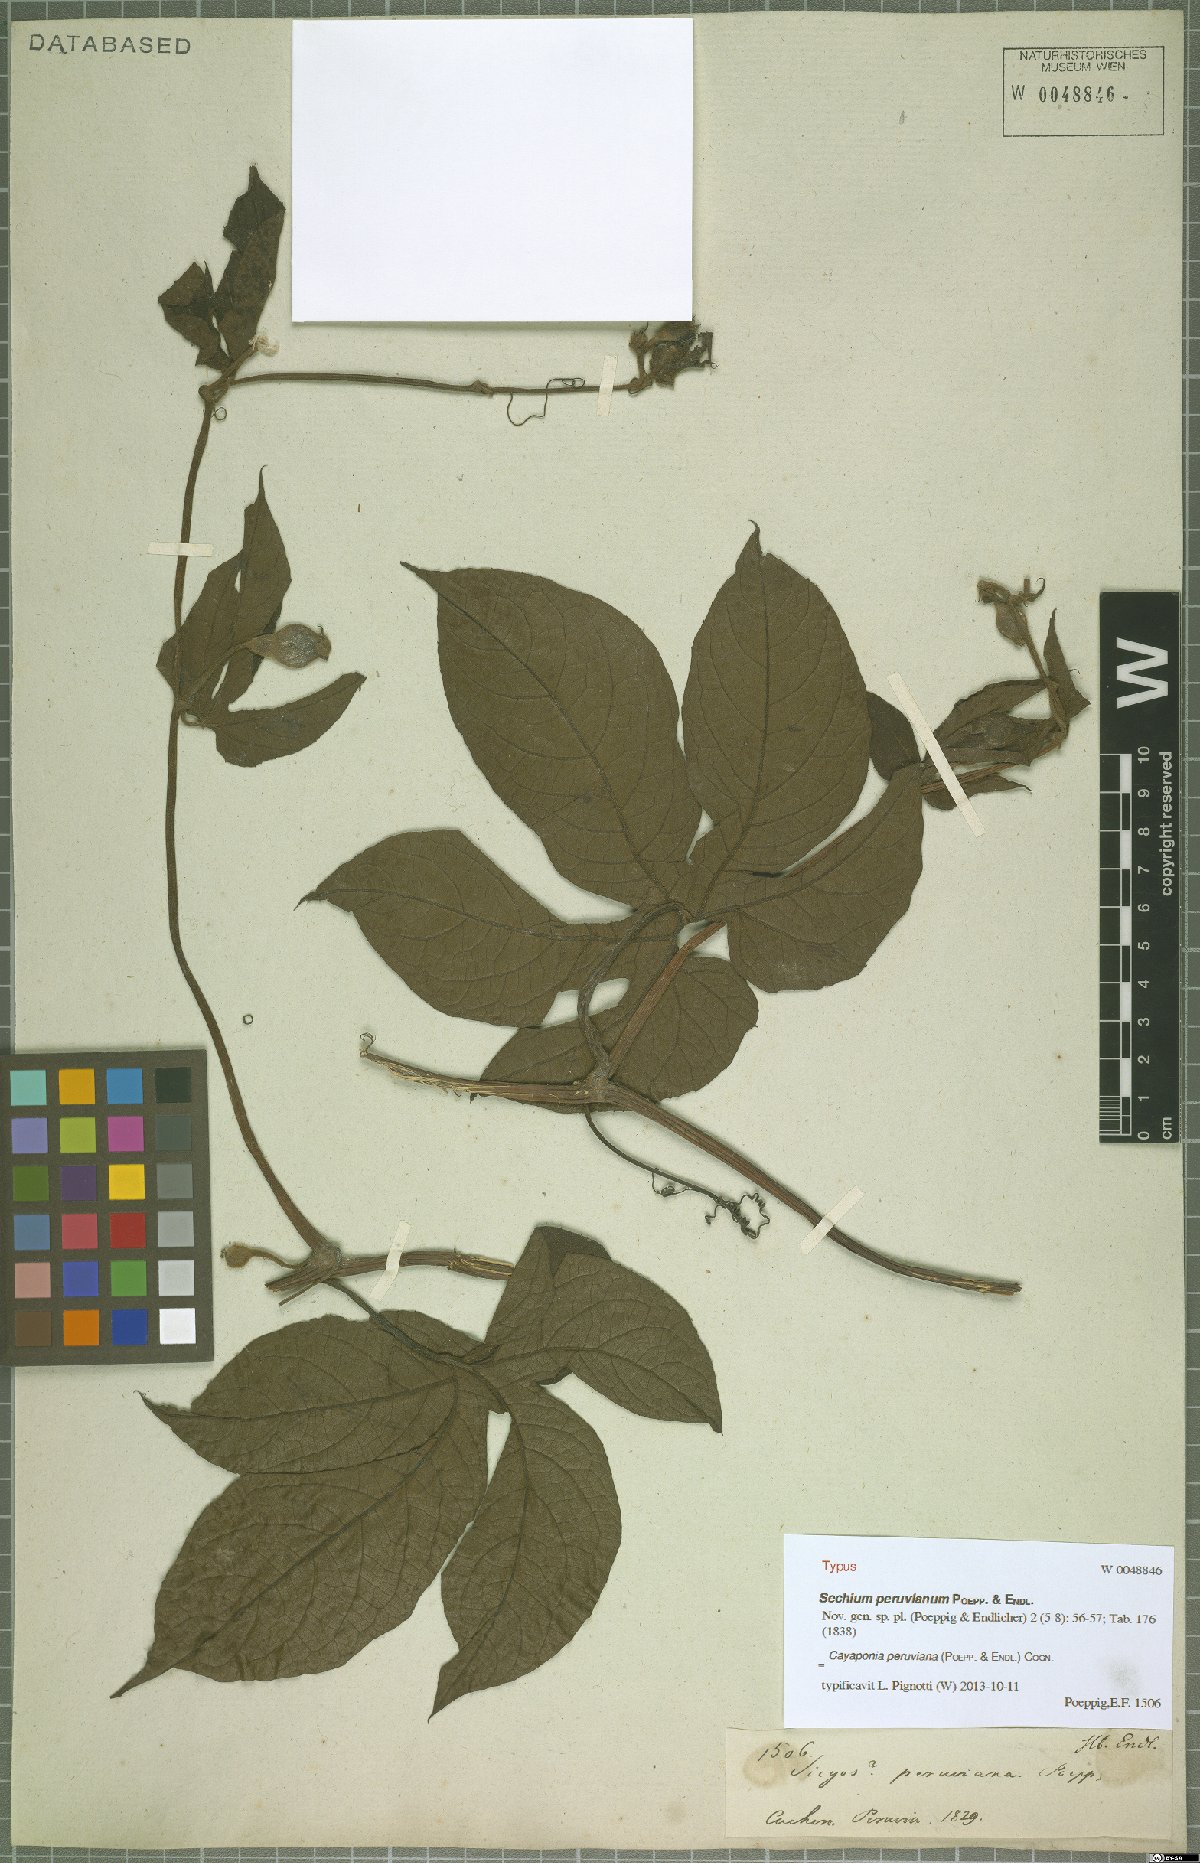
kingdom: Plantae
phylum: Tracheophyta
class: Magnoliopsida
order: Cucurbitales
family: Cucurbitaceae
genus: Cayaponia
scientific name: Cayaponia peruviana
